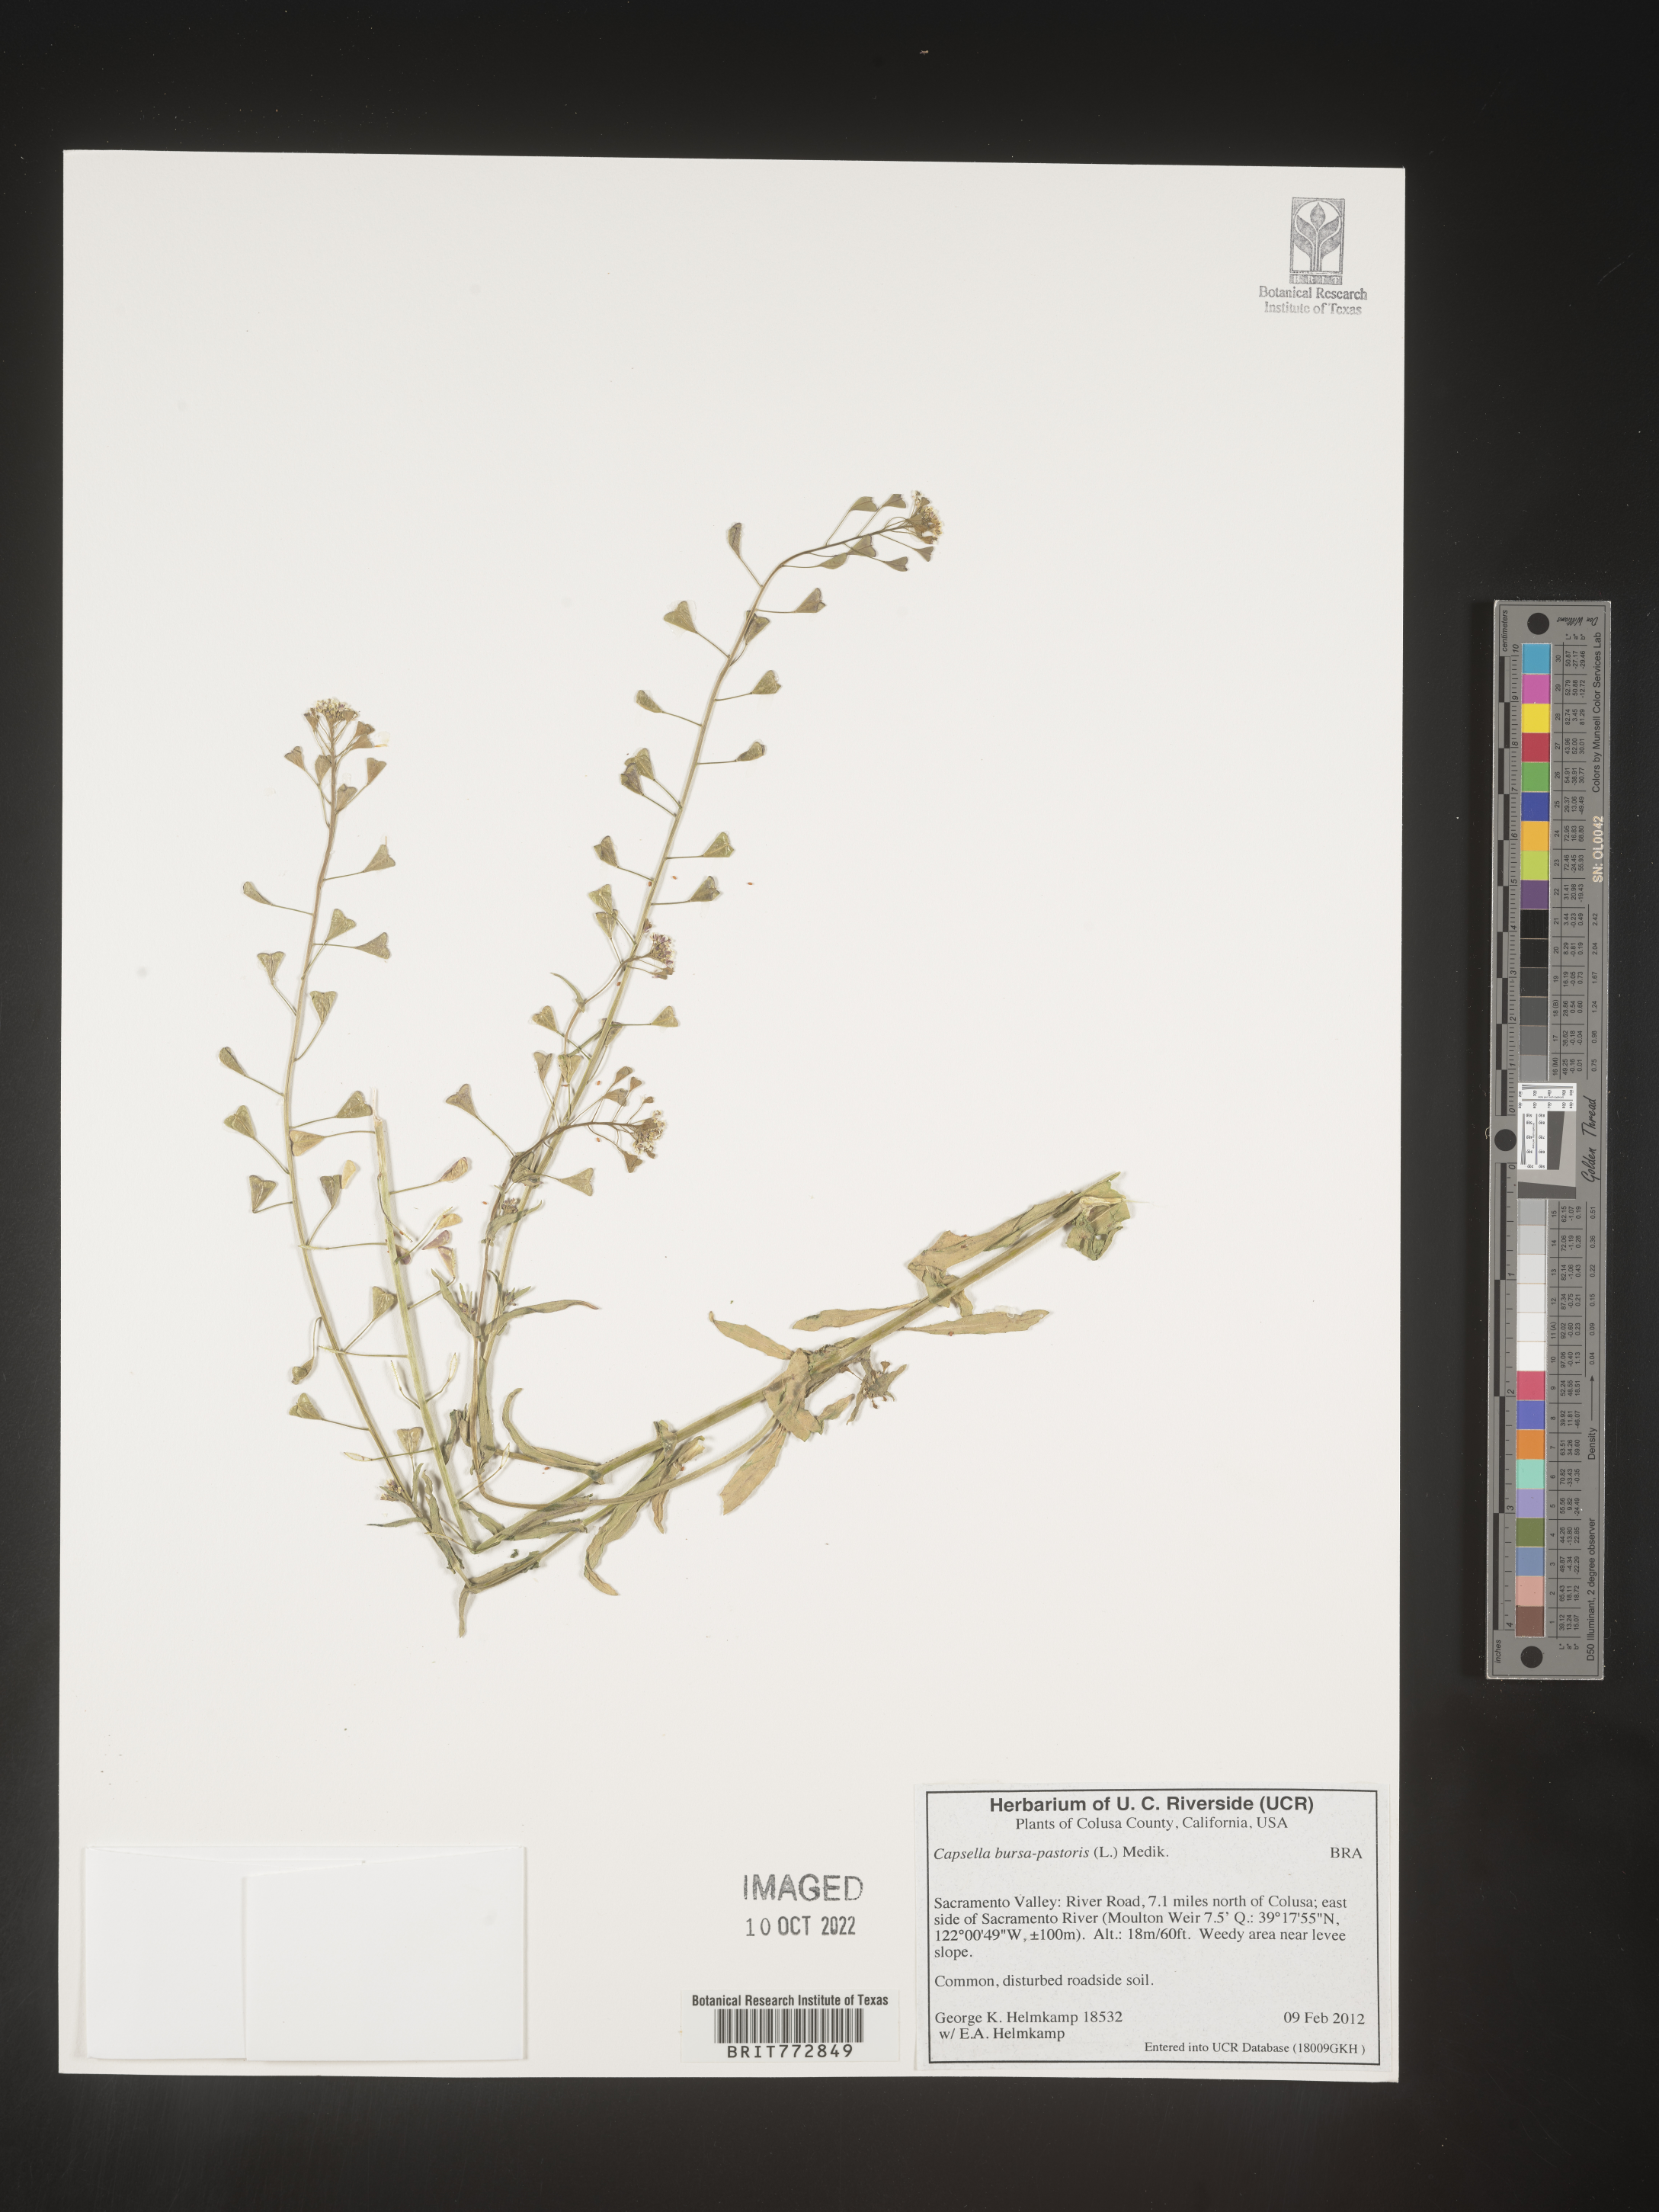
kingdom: Plantae
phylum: Tracheophyta
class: Magnoliopsida
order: Brassicales
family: Brassicaceae
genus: Capsella
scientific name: Capsella bursa-pastoris
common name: Shepherd's purse
